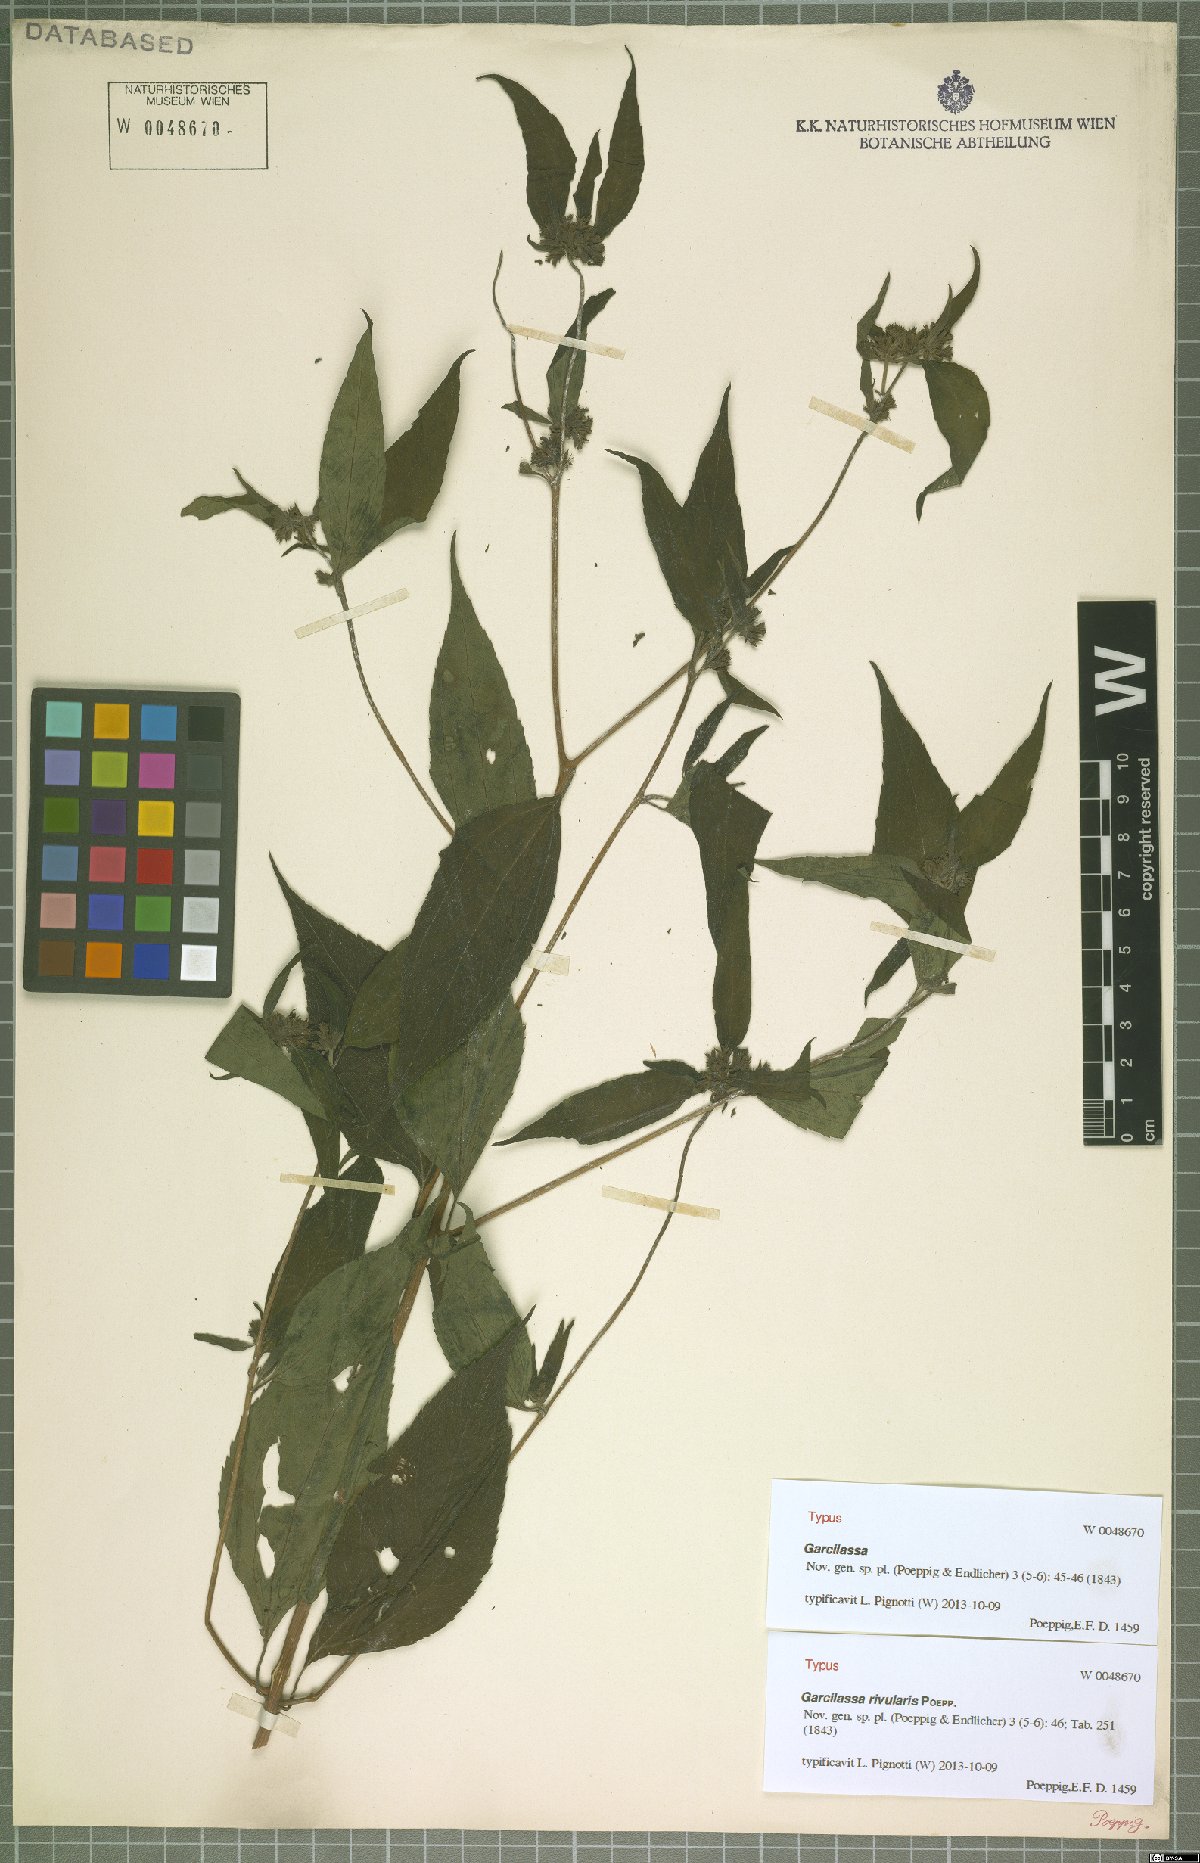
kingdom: Plantae
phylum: Tracheophyta
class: Magnoliopsida
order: Asterales
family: Asteraceae
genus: Hymenostephium
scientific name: Hymenostephium rivularis
